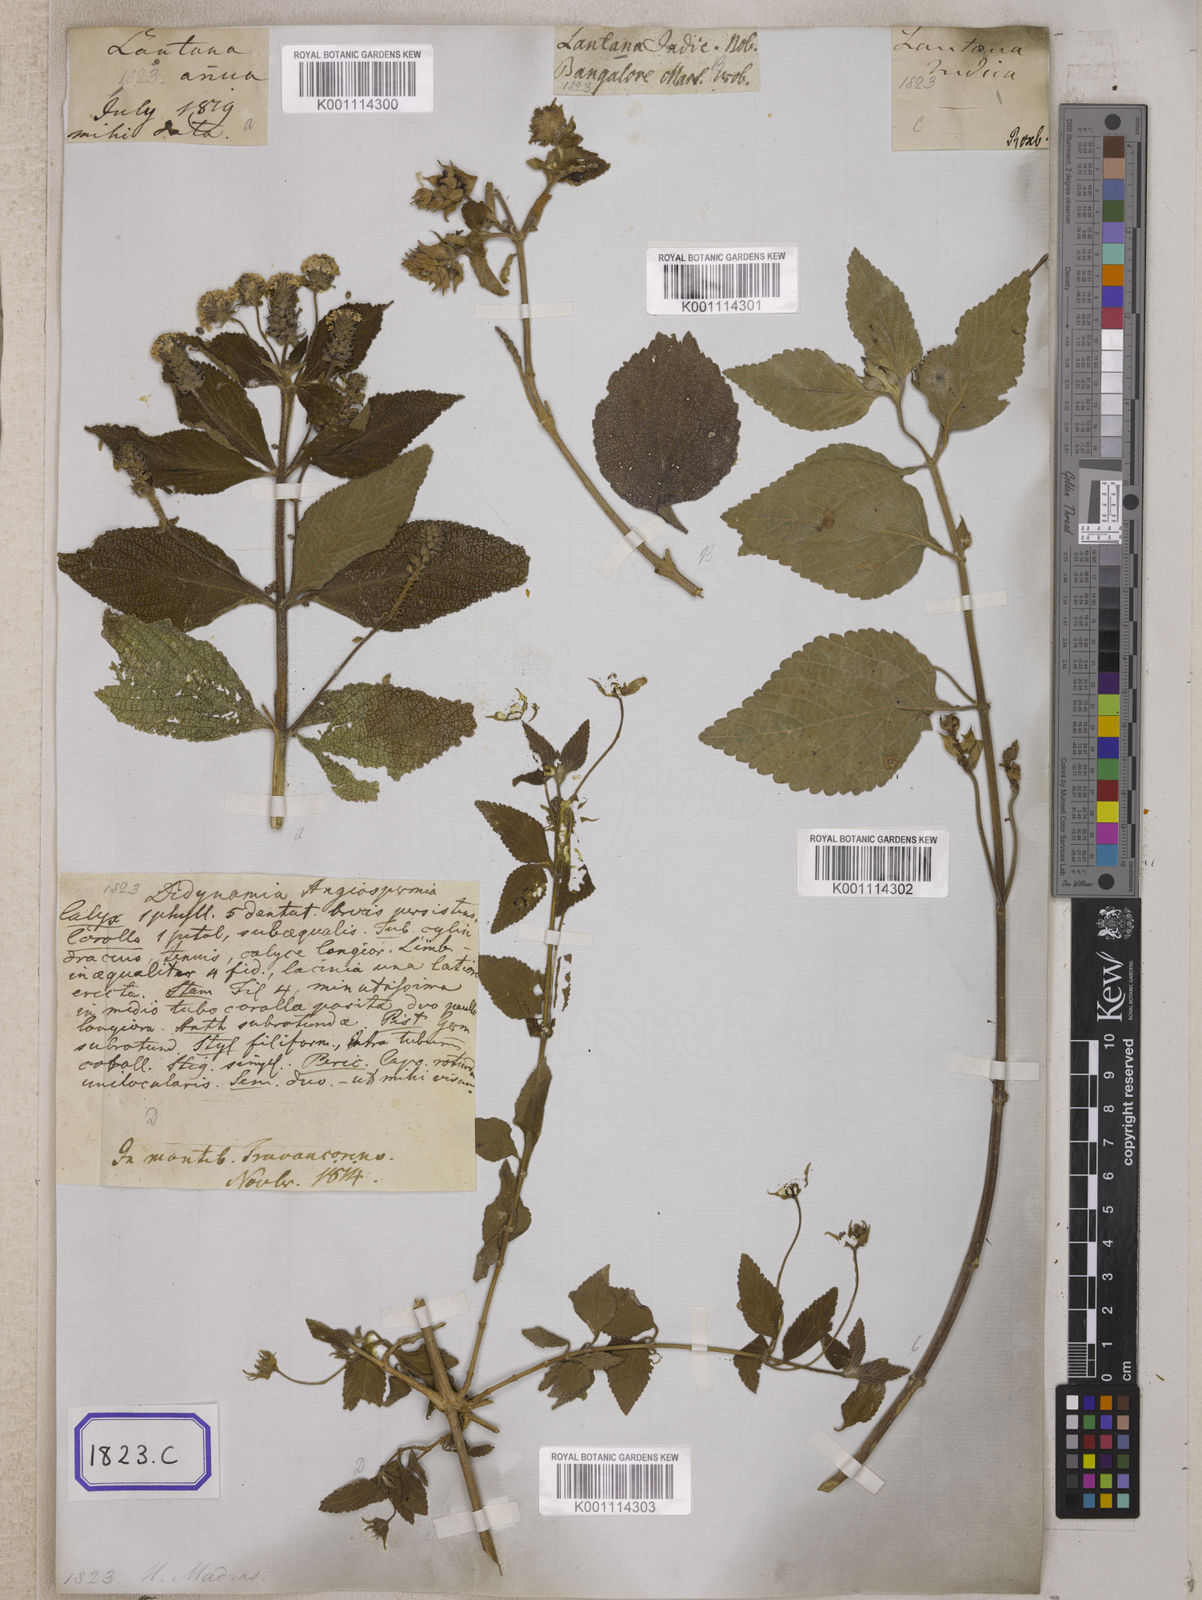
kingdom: Plantae
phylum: Tracheophyta
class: Magnoliopsida
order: Lamiales
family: Verbenaceae
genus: Lantana
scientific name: Lantana indica
